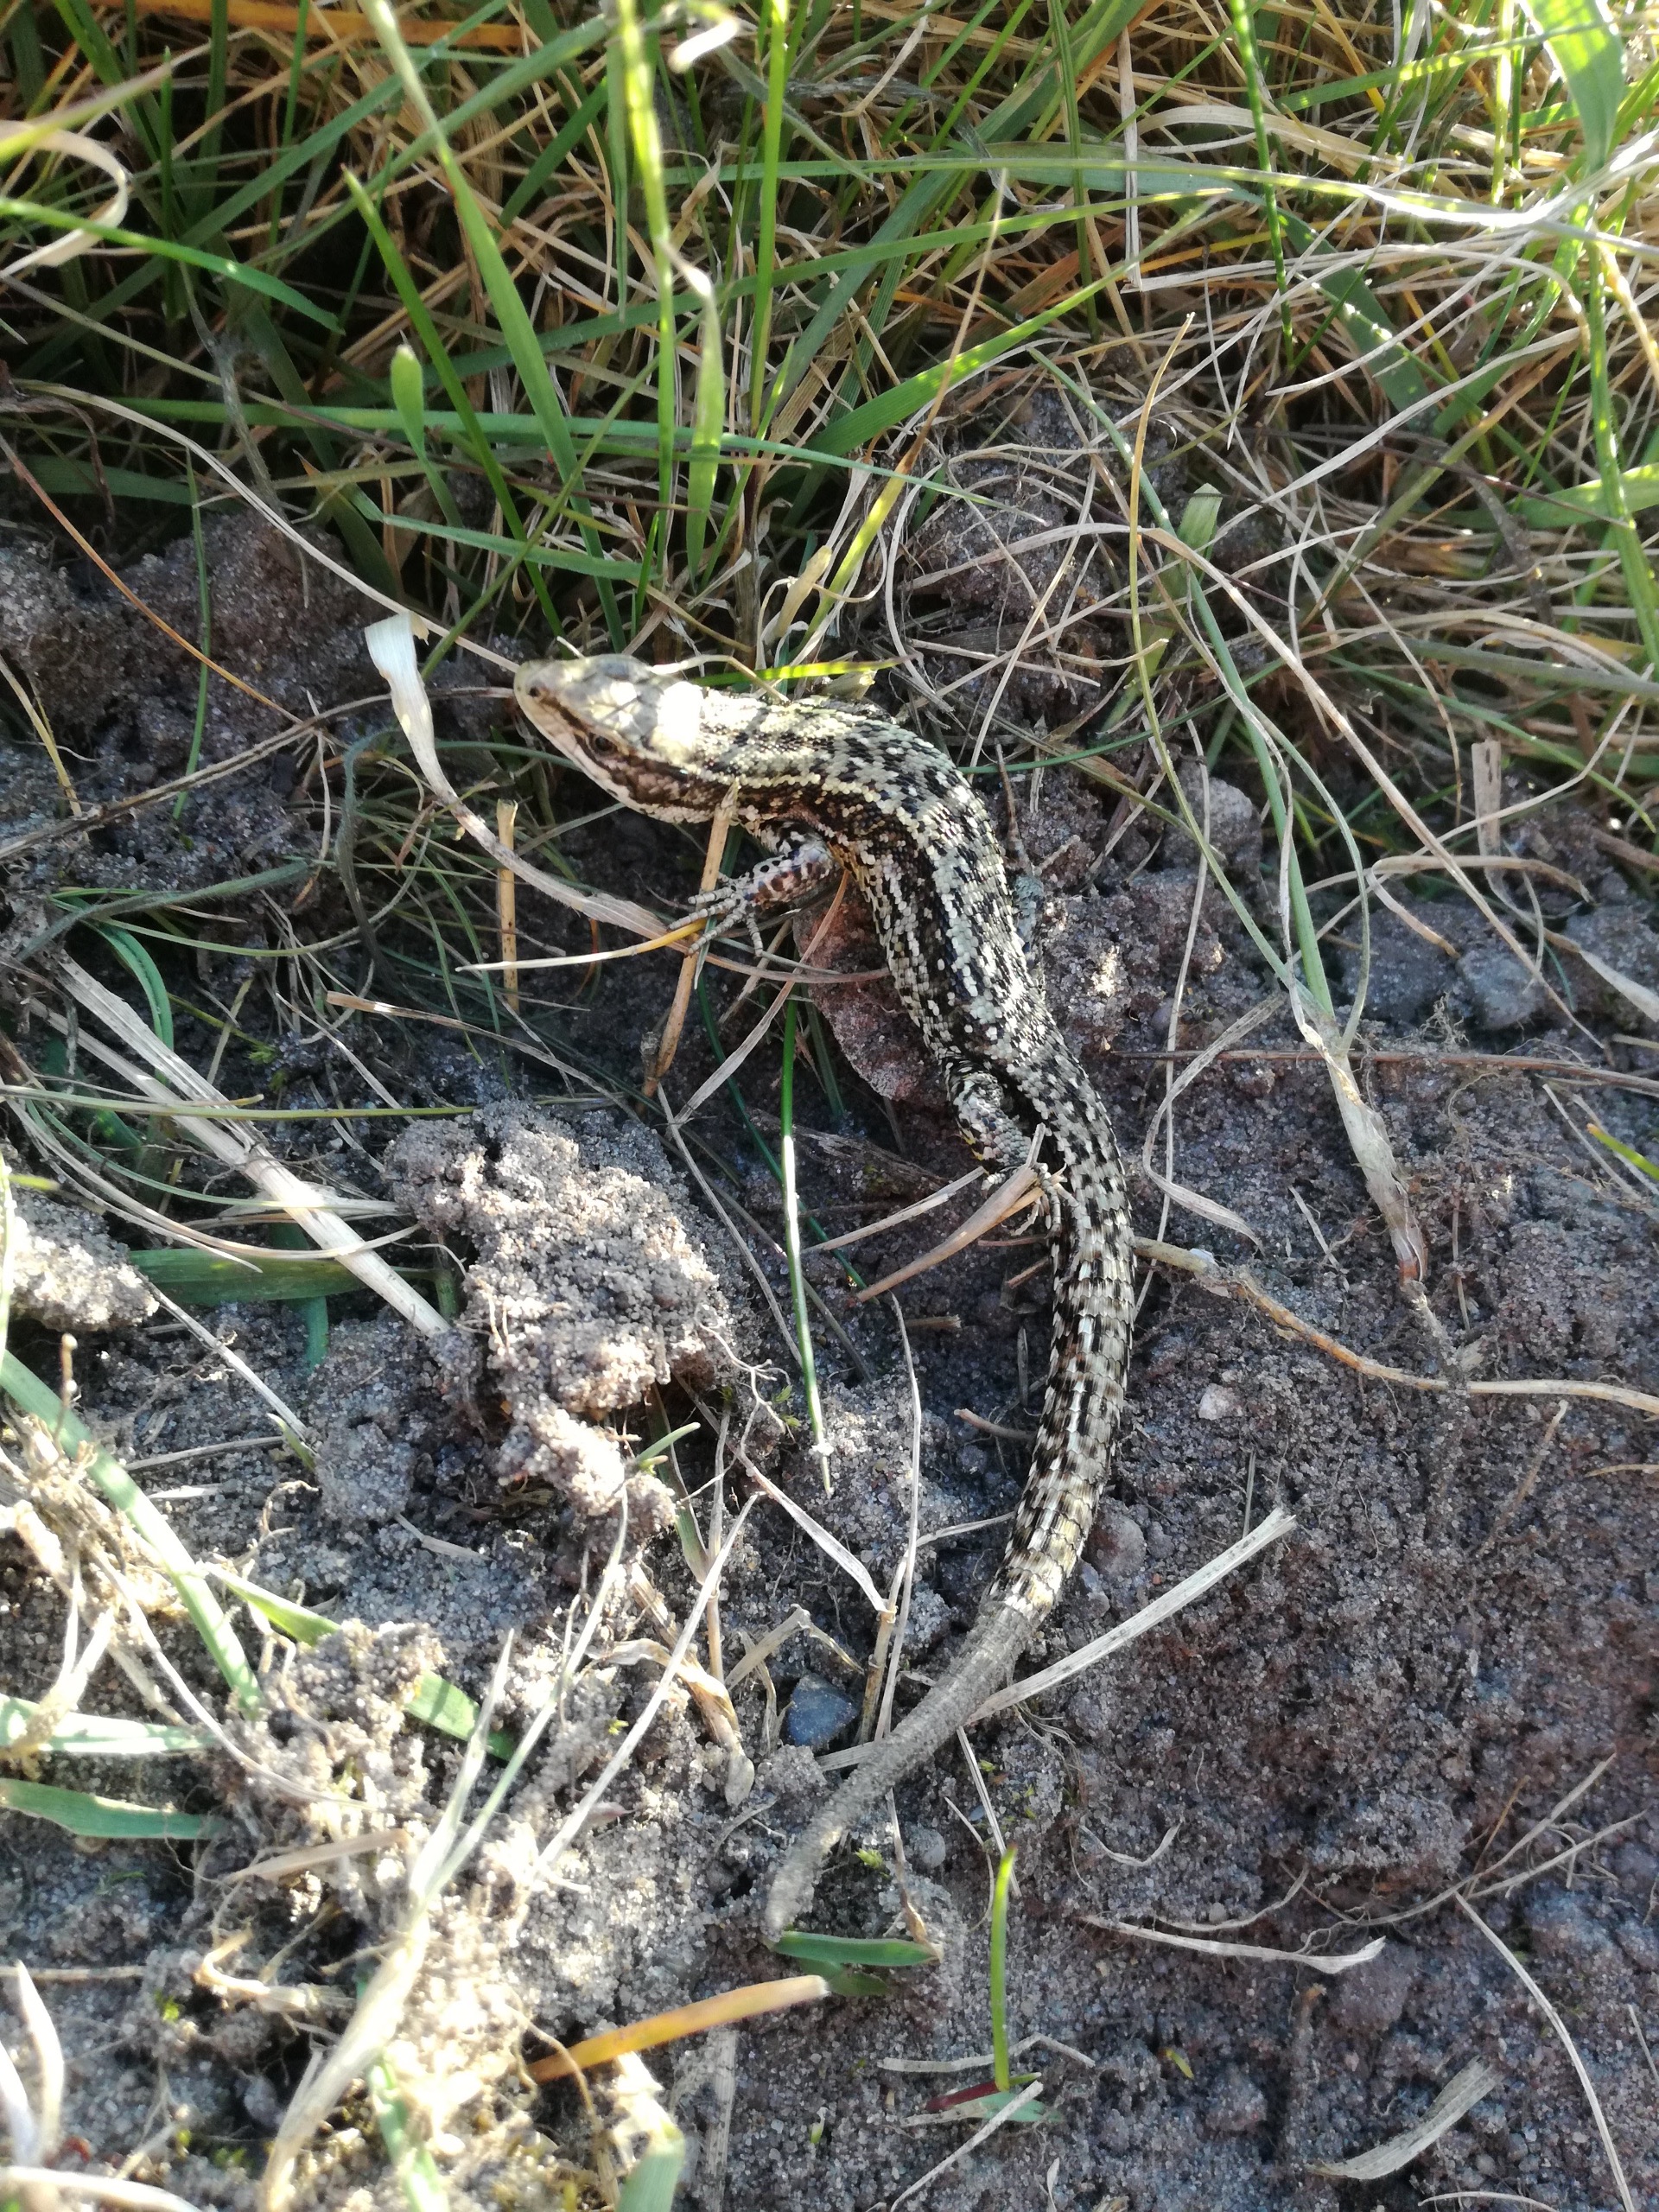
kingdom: Animalia
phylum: Chordata
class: Squamata
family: Lacertidae
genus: Zootoca
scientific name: Zootoca vivipara
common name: Skovfirben
